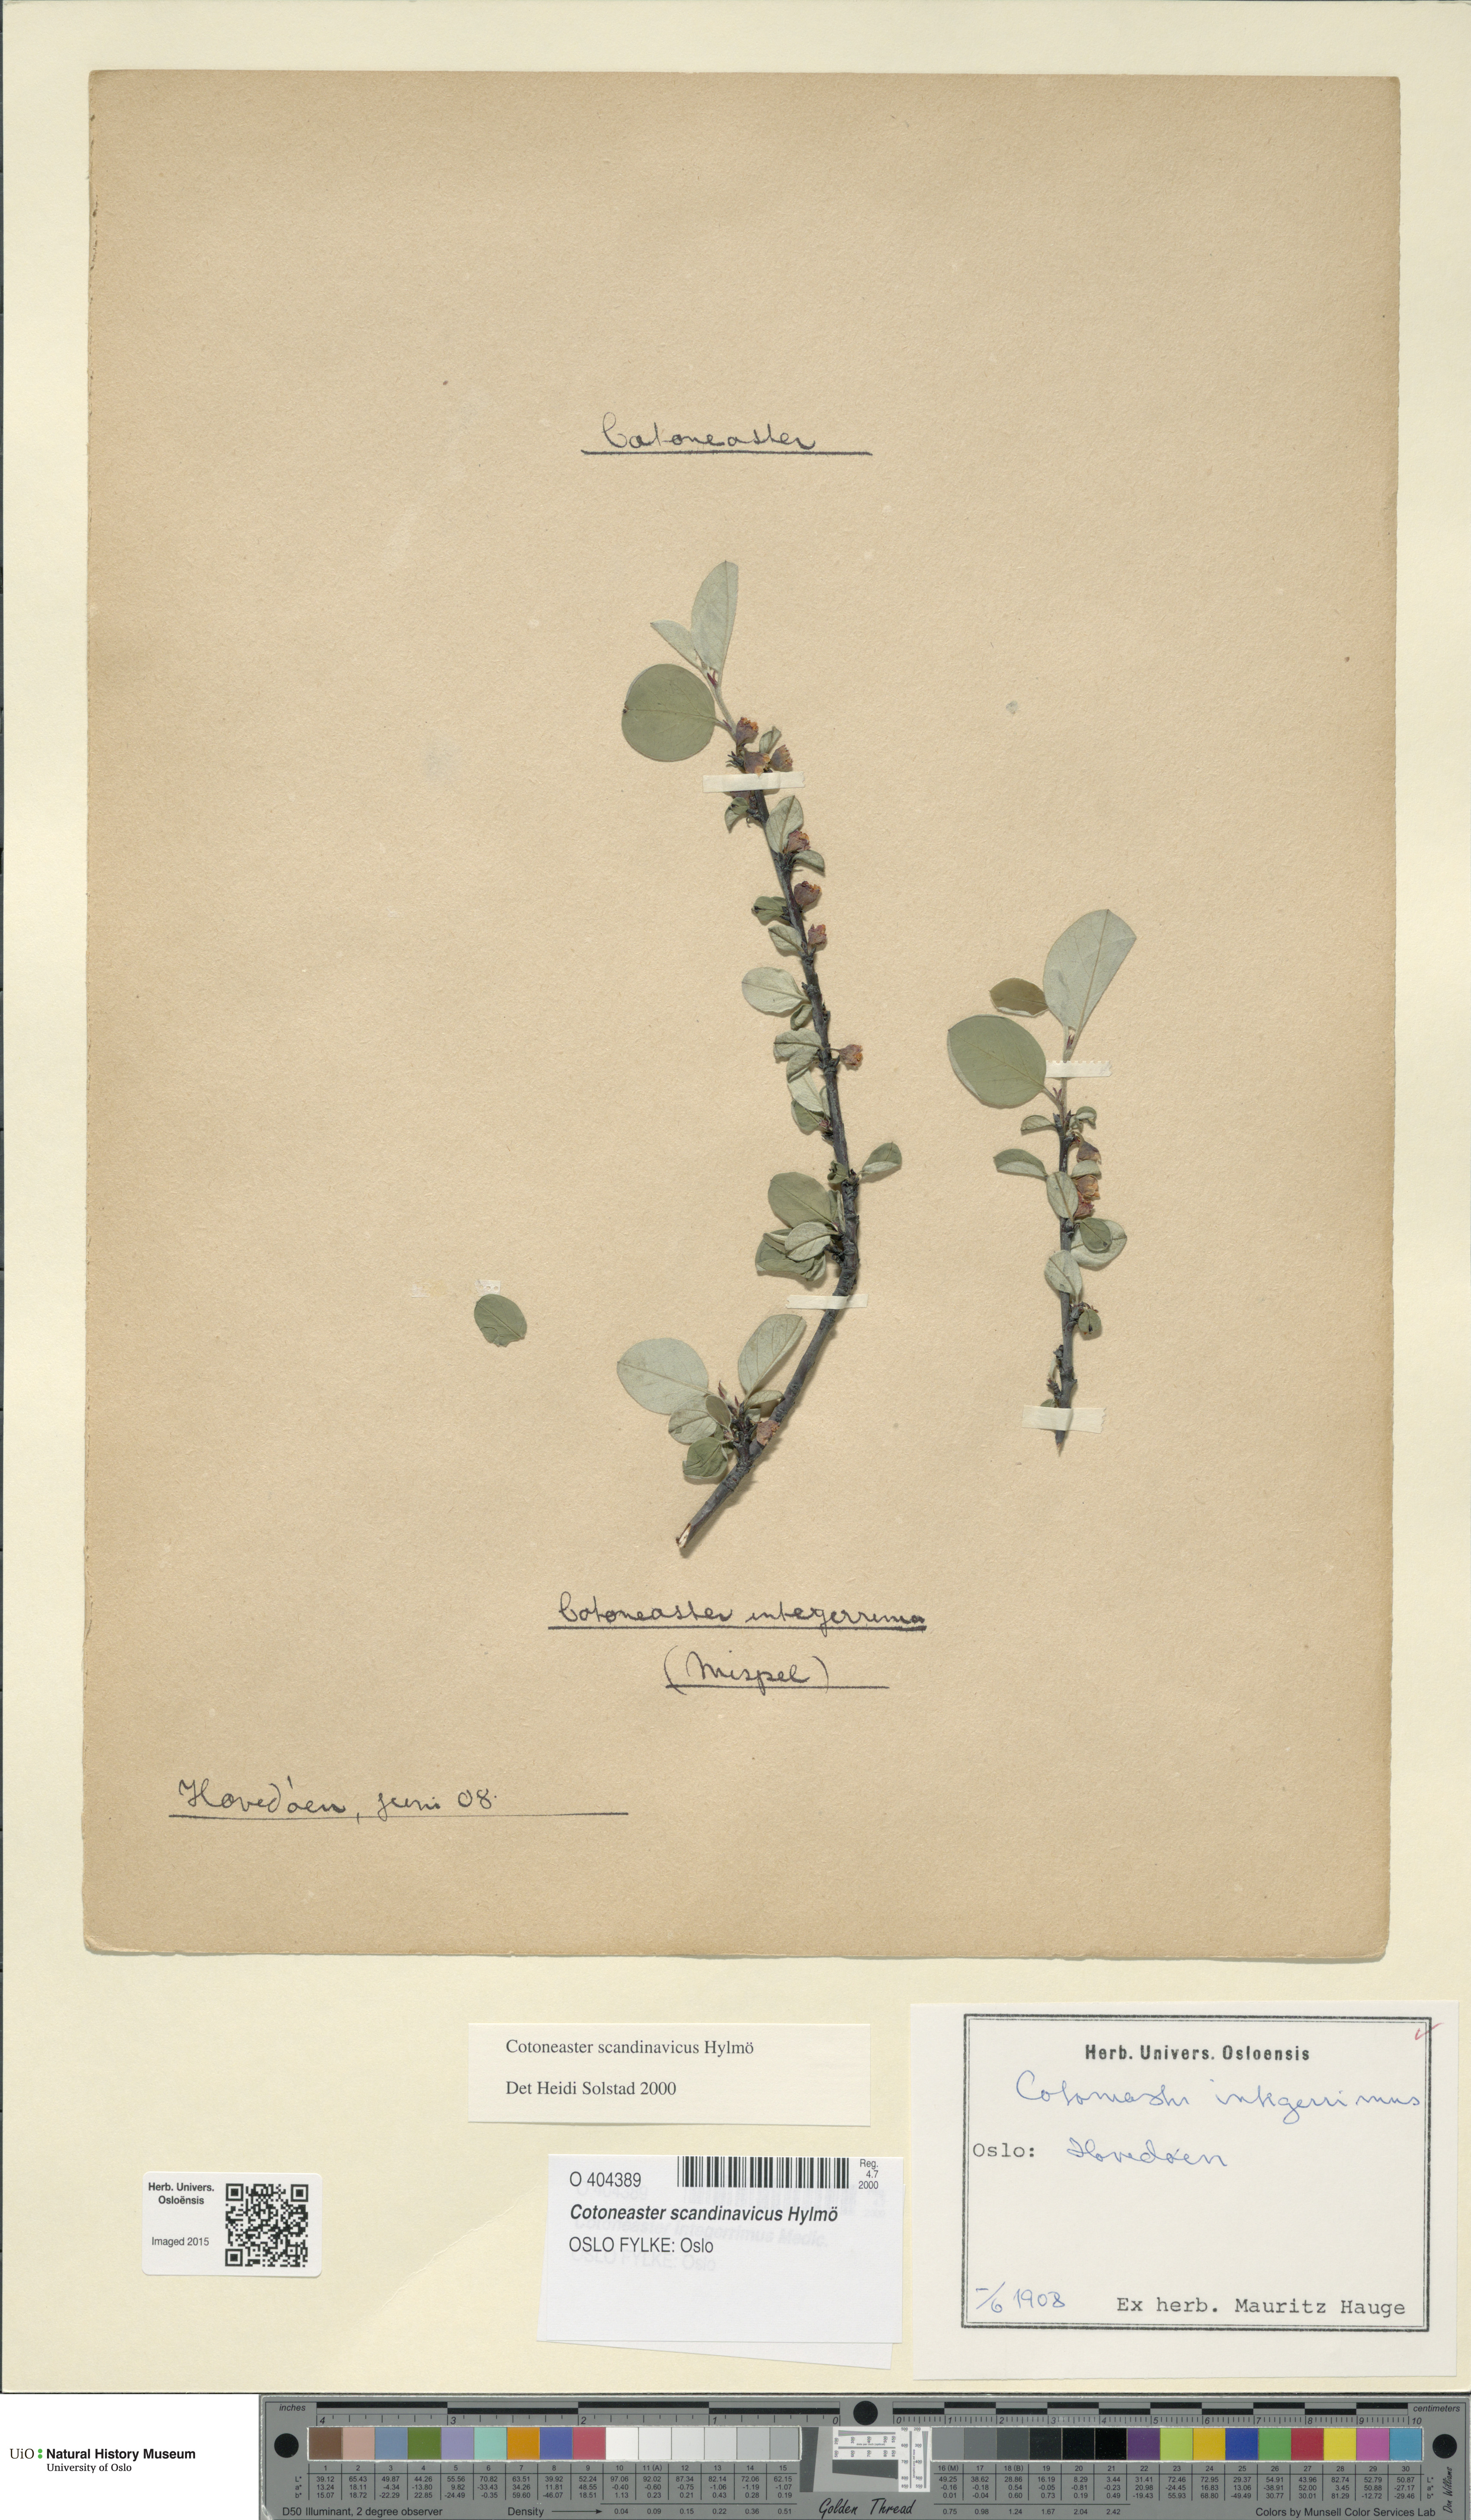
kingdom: Plantae
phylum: Tracheophyta
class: Magnoliopsida
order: Rosales
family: Rosaceae
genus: Cotoneaster
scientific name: Cotoneaster integerrimus
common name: Wild cotoneaster
